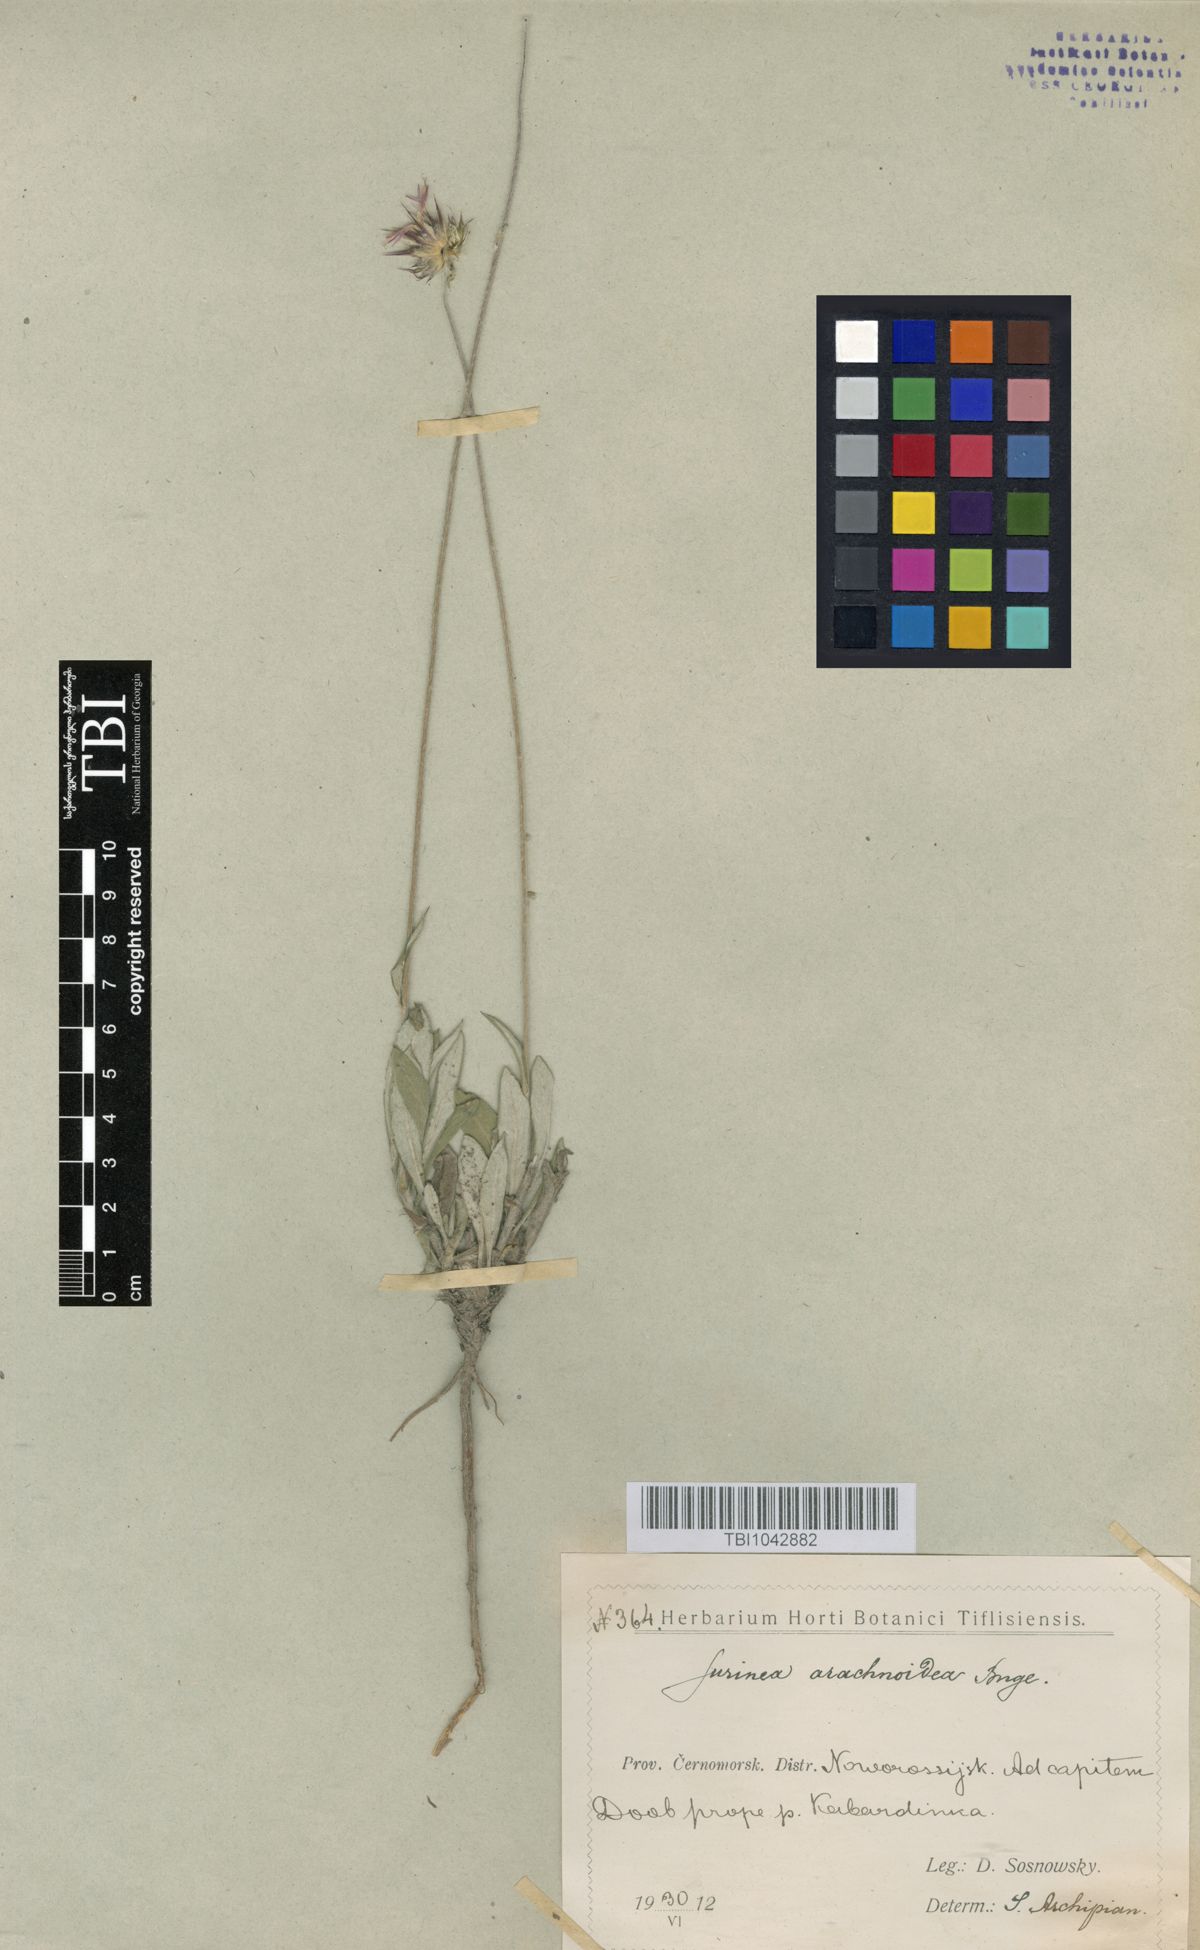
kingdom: Plantae
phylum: Tracheophyta
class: Magnoliopsida
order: Asterales
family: Asteraceae
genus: Jurinea
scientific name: Jurinea blanda
